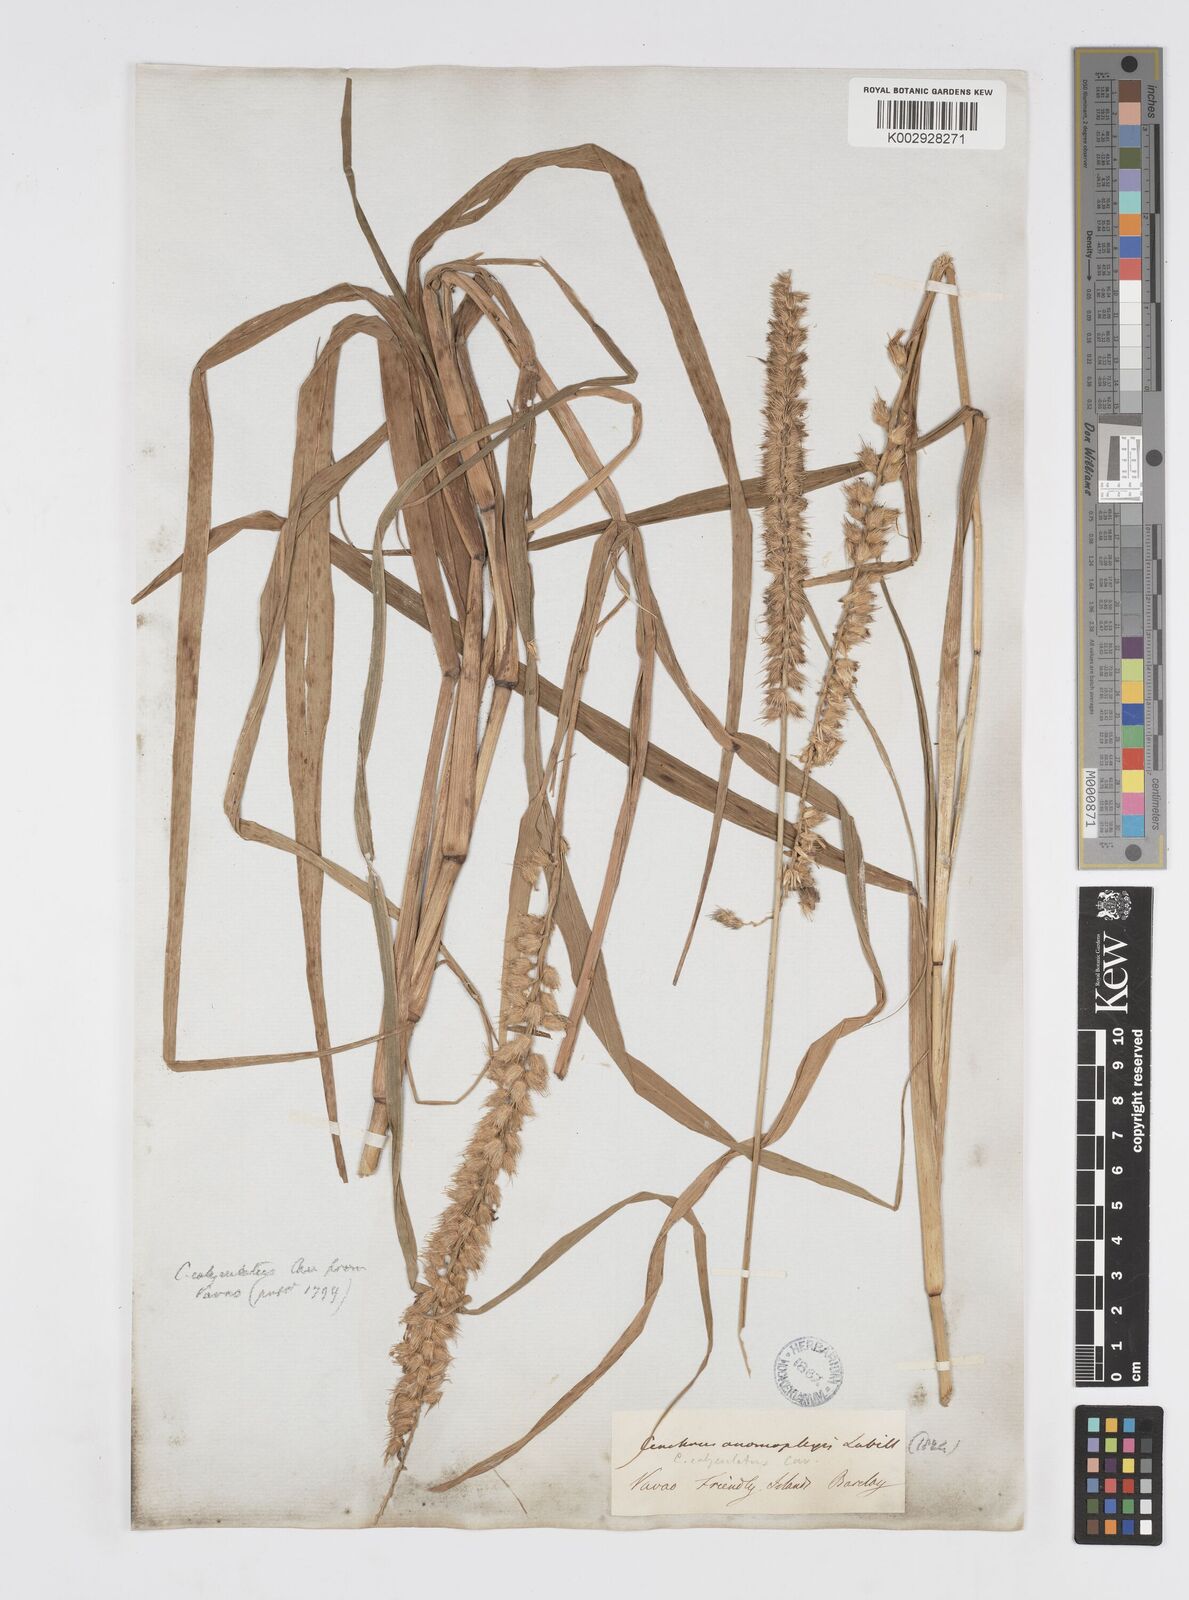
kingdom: Plantae
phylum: Tracheophyta
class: Liliopsida
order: Poales
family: Poaceae
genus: Cenchrus
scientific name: Cenchrus caliculatus
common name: Large bur grass
